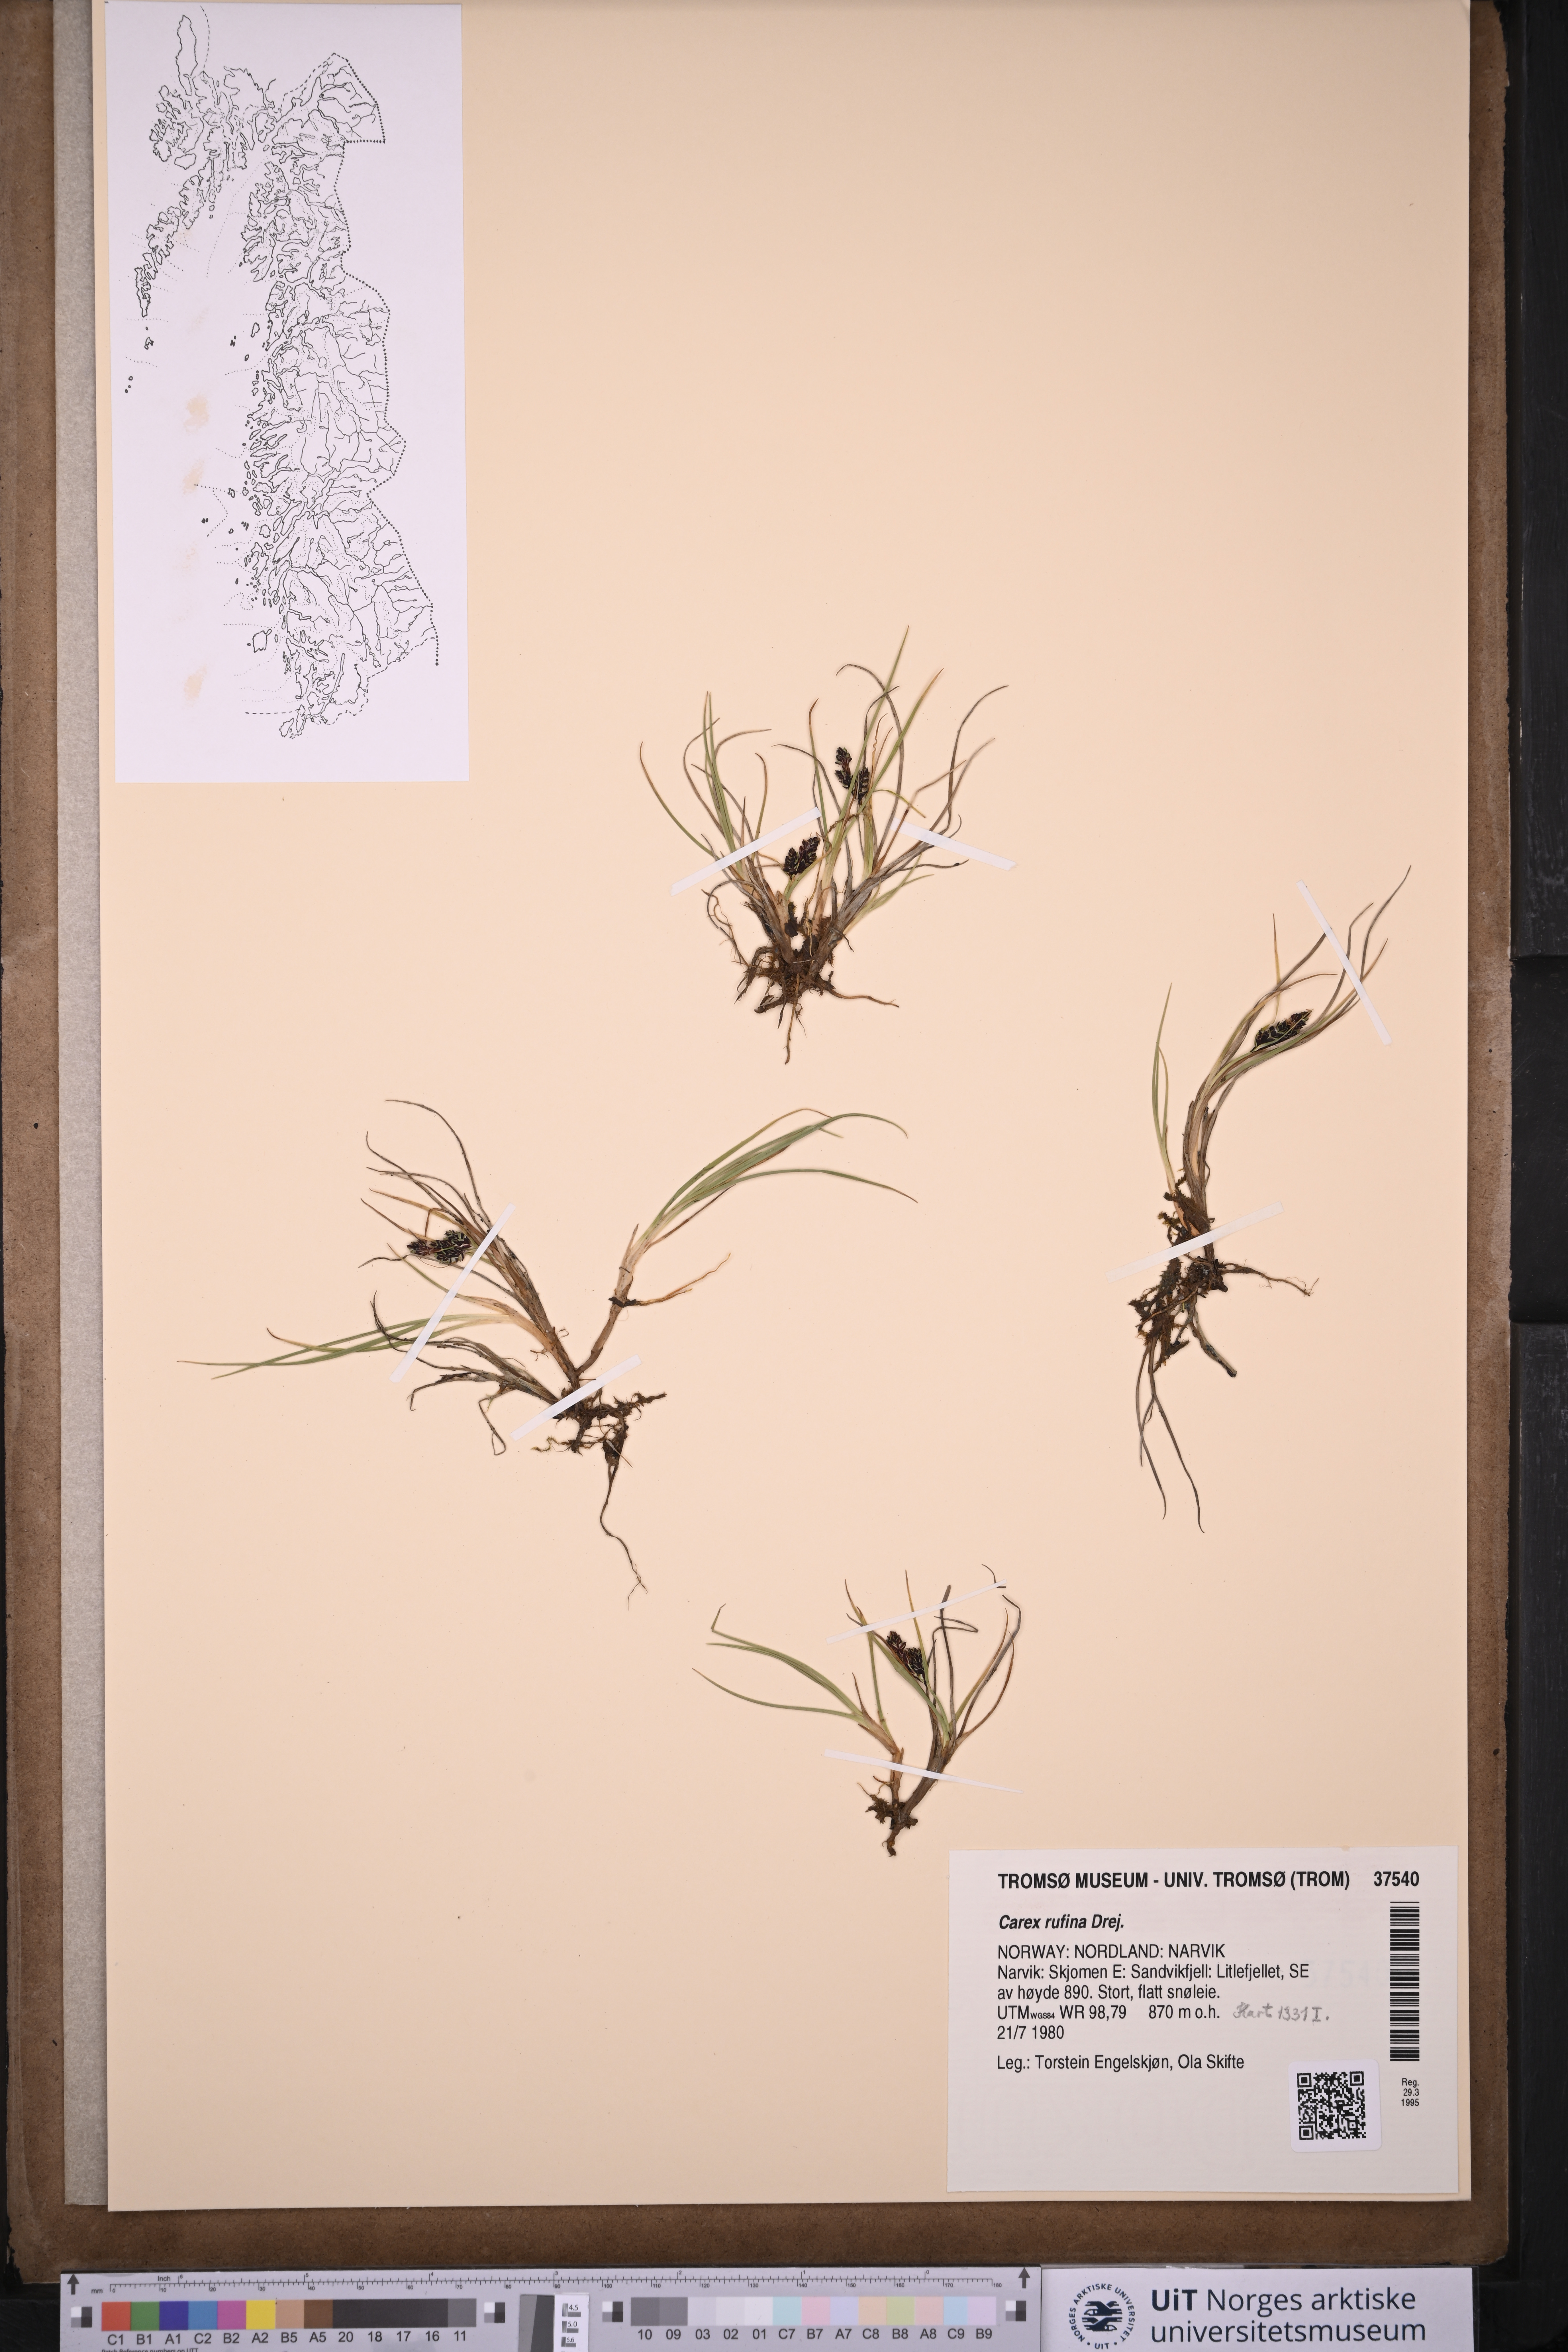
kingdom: Plantae
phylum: Tracheophyta
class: Liliopsida
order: Poales
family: Cyperaceae
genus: Carex
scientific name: Carex rufina
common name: Reddish sedge
